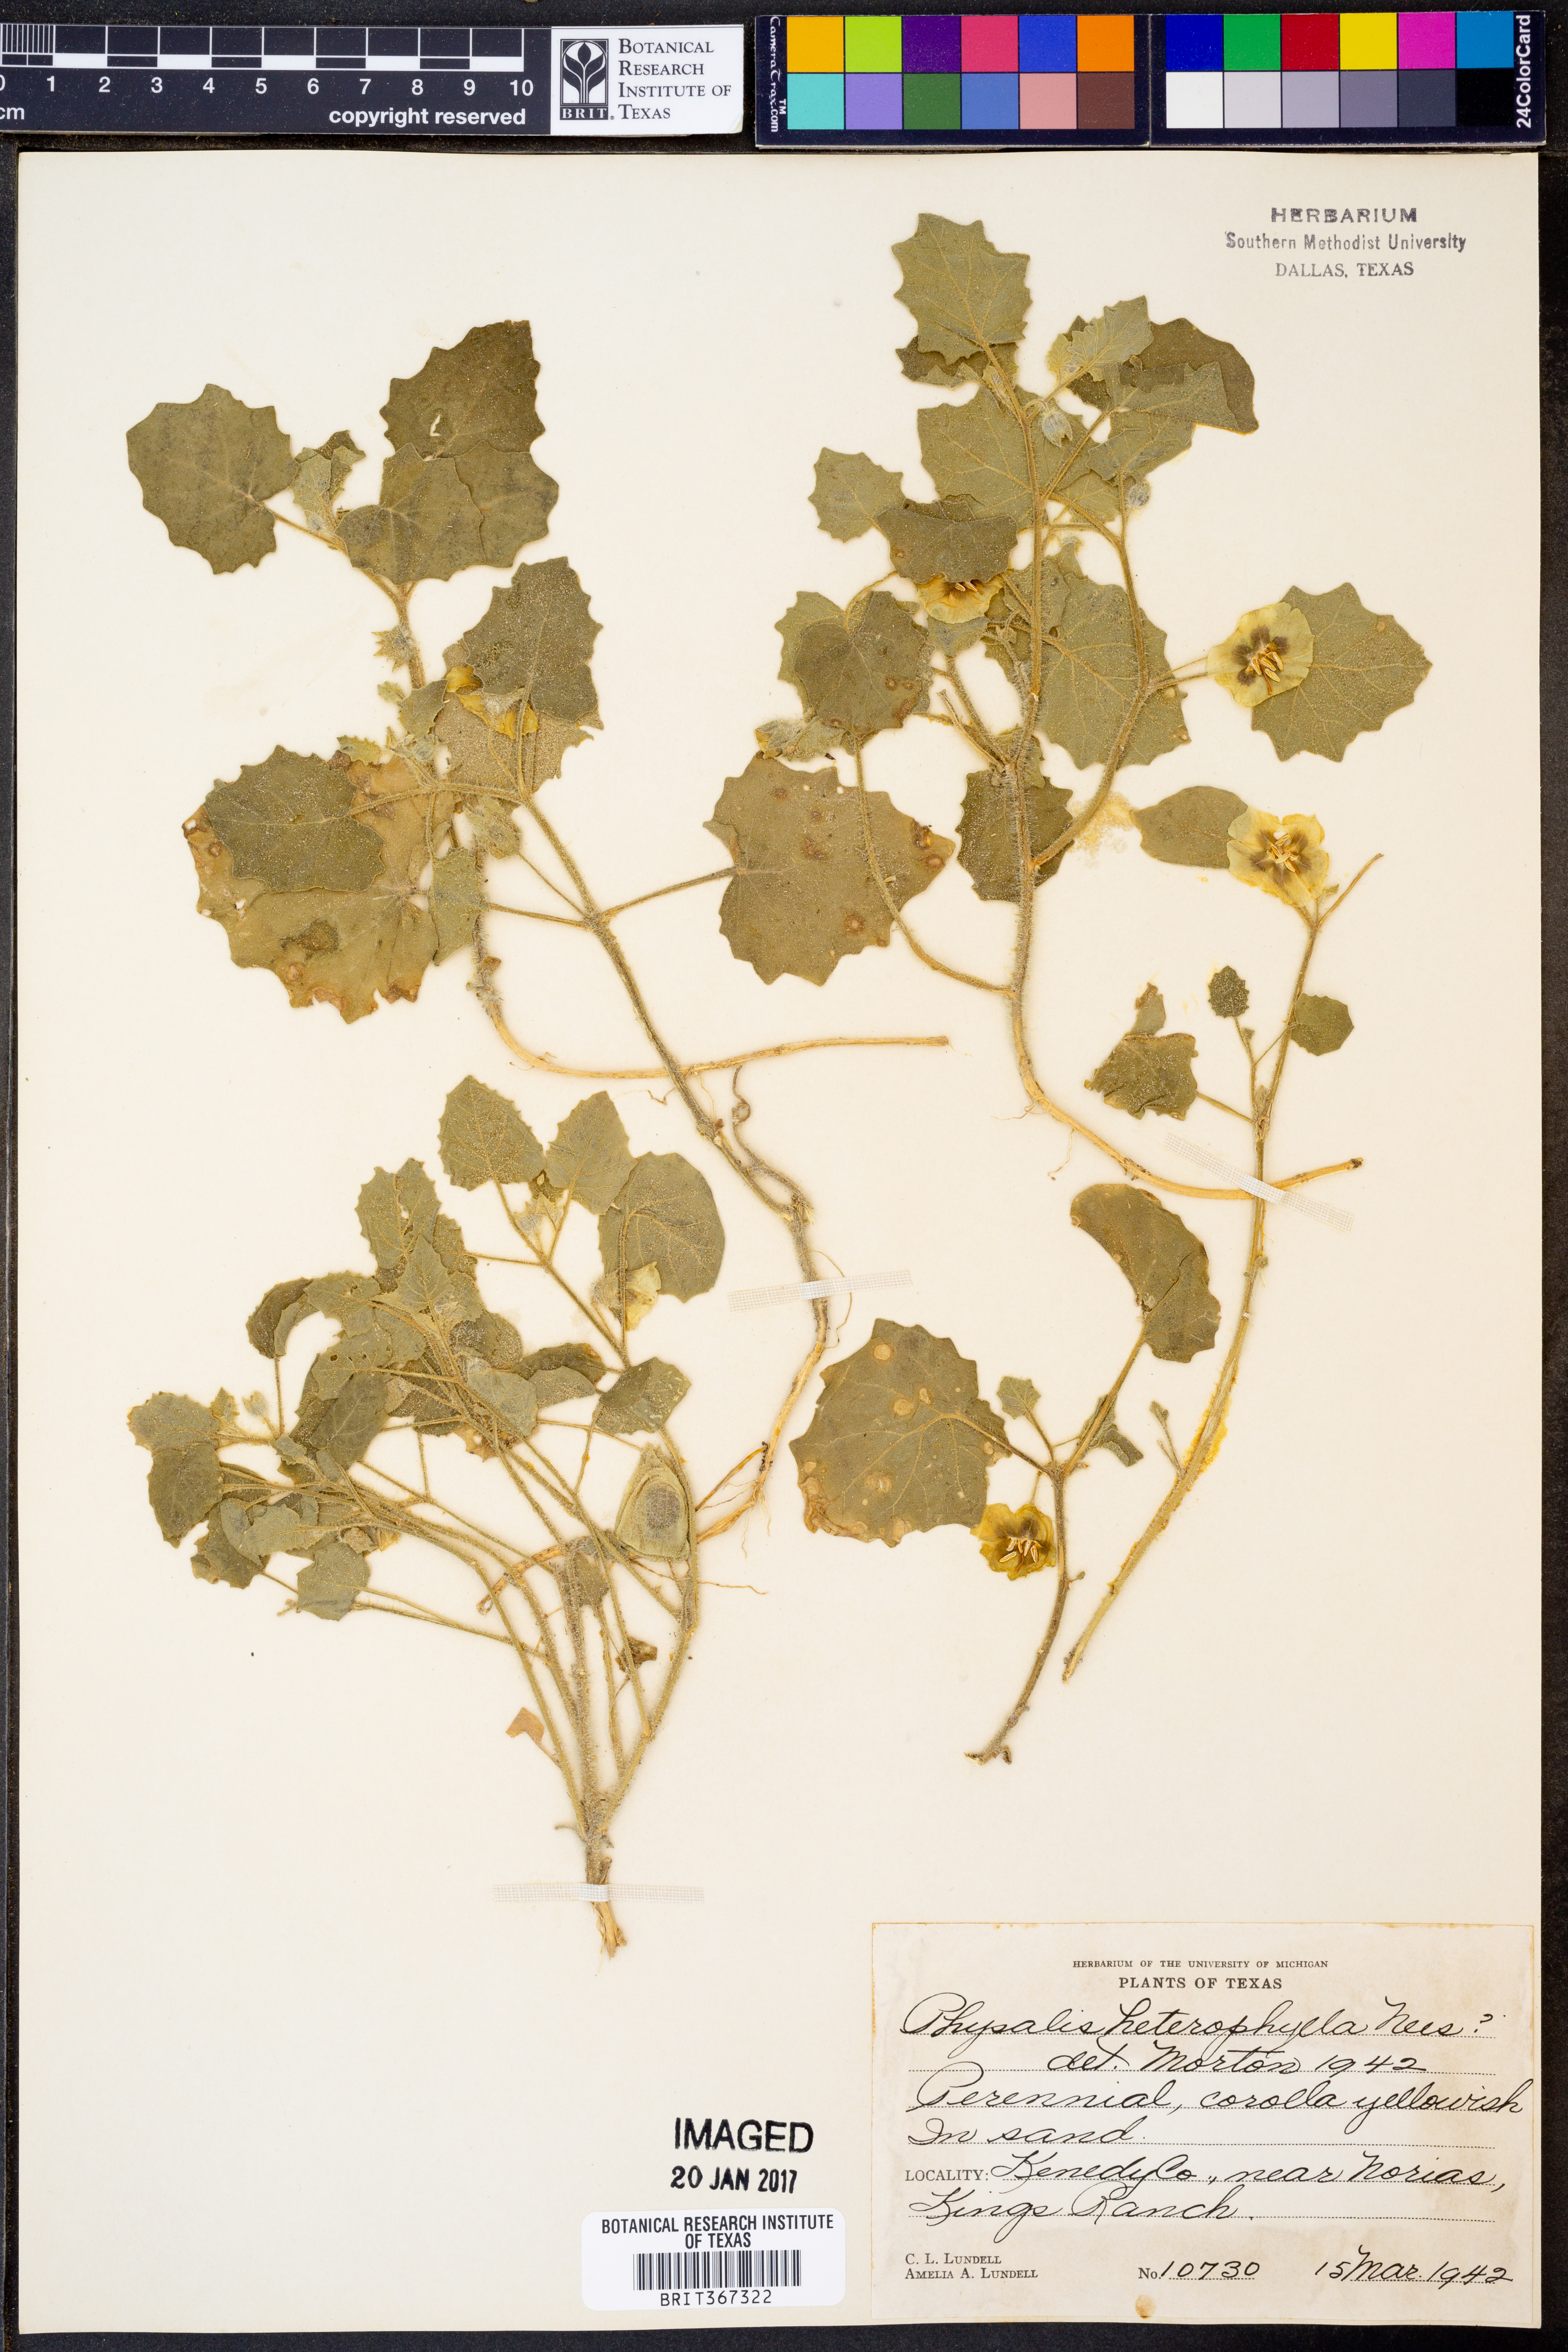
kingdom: Plantae
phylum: Tracheophyta
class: Magnoliopsida
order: Solanales
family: Solanaceae
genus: Physalis
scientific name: Physalis hederifolia
